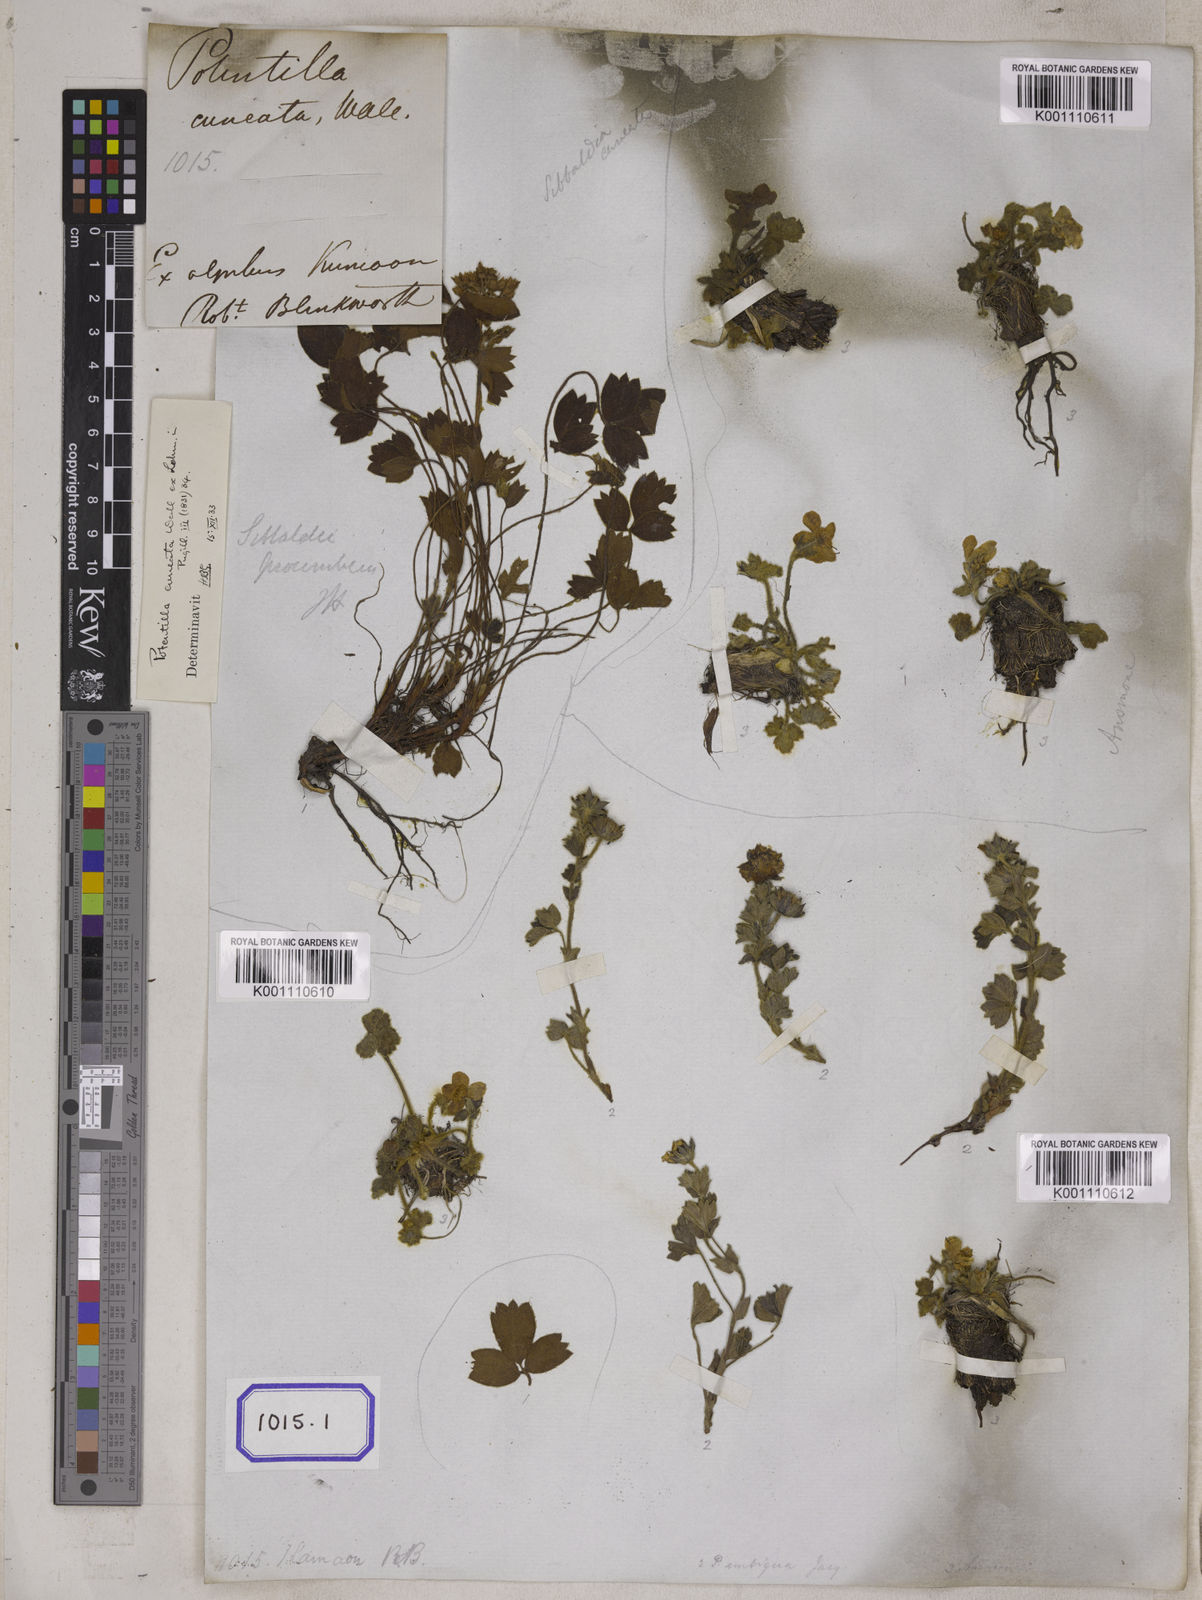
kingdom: Plantae
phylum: Tracheophyta
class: Magnoliopsida
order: Rosales
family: Rosaceae
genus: Potentilla
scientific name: Potentilla
